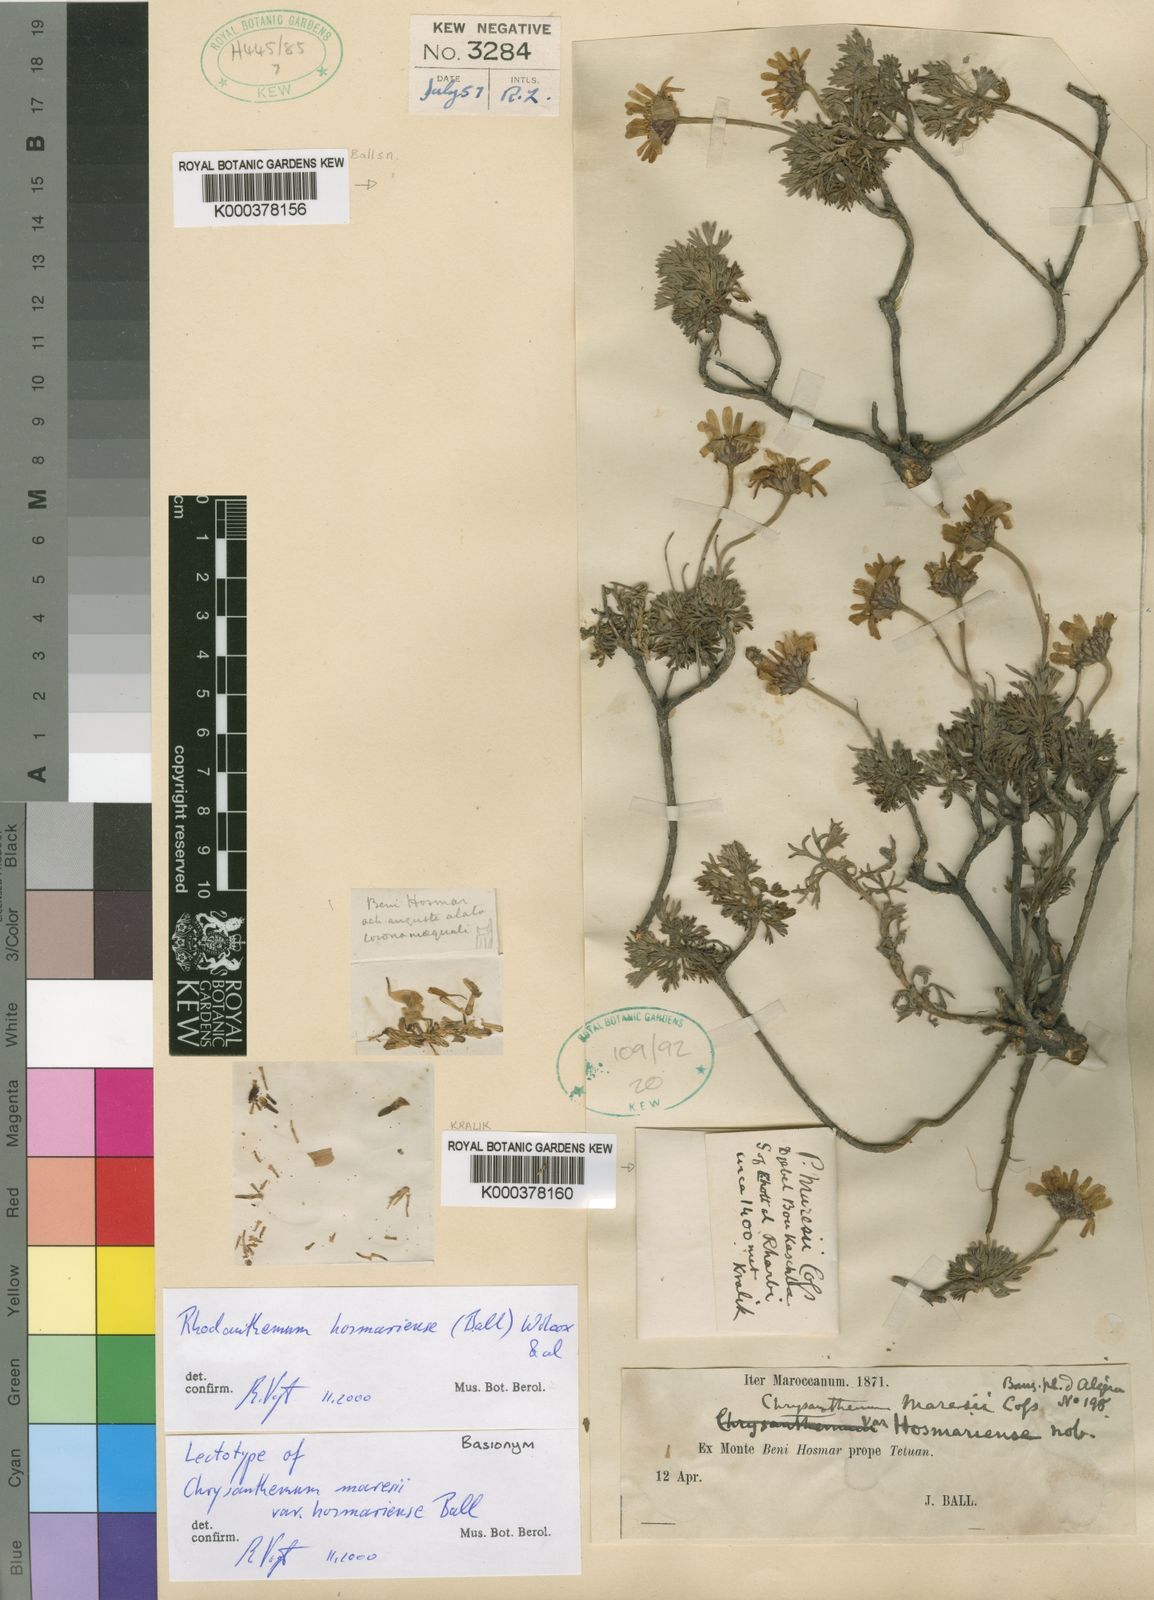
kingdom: Plantae
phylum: Tracheophyta
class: Magnoliopsida
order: Asterales
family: Asteraceae
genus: Rhodanthemum
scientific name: Rhodanthemum
